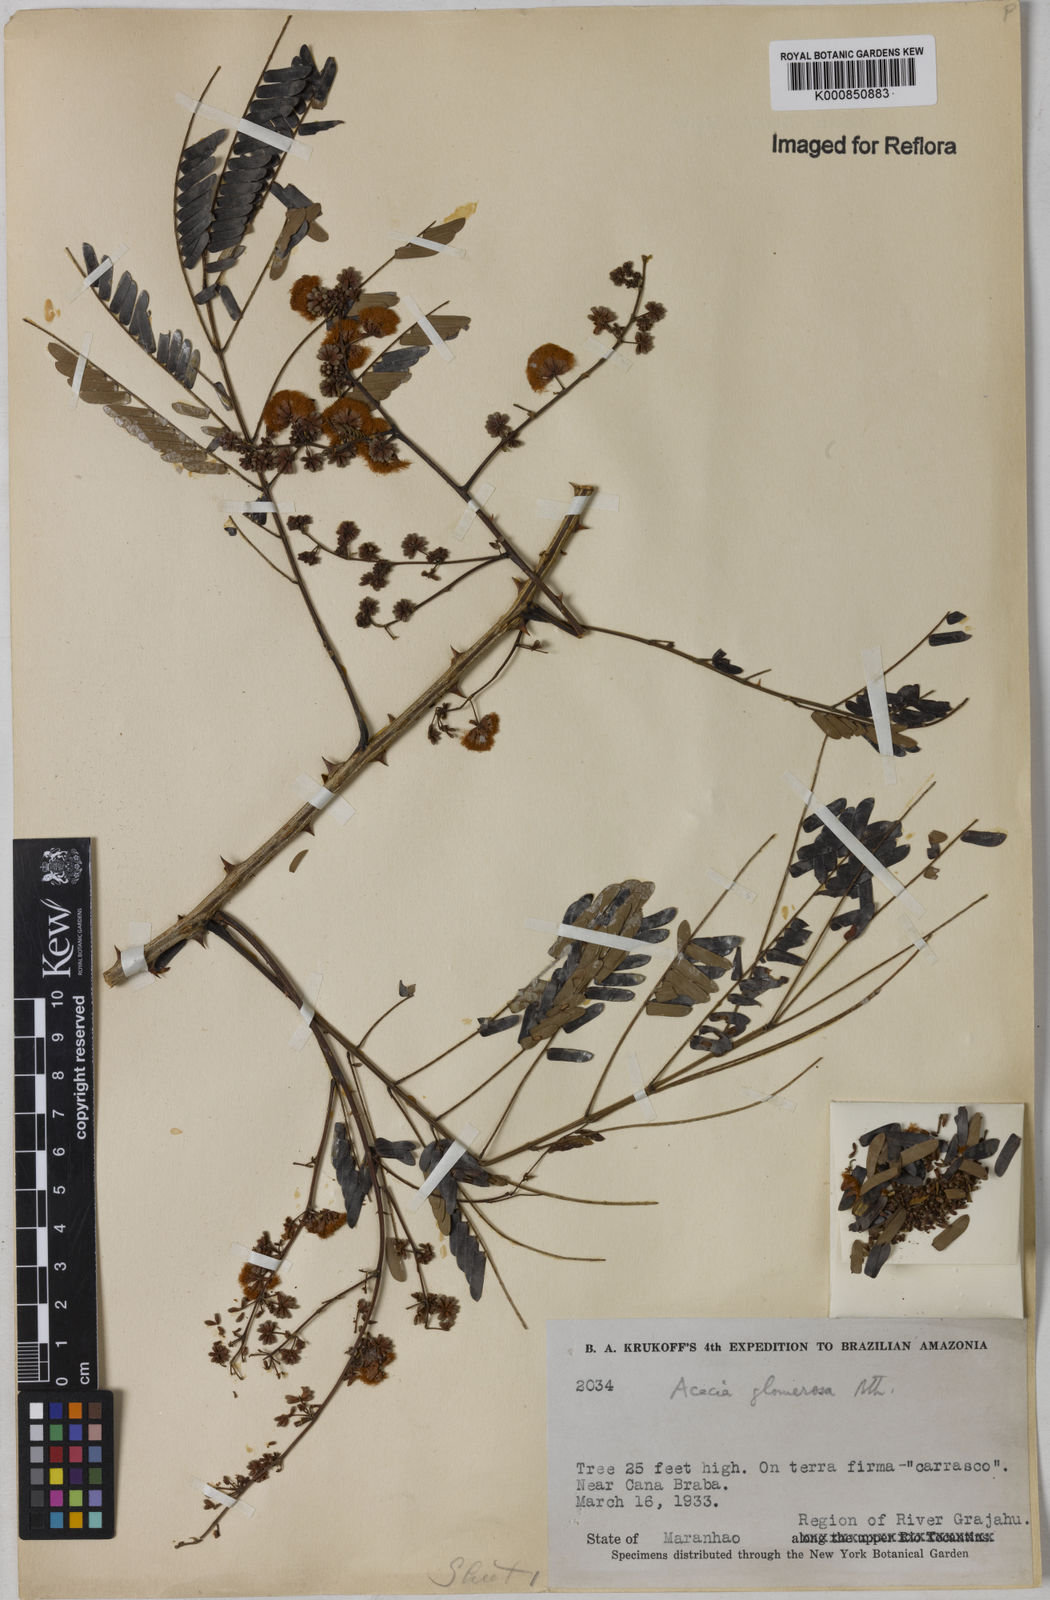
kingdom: Plantae
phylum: Tracheophyta
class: Magnoliopsida
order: Fabales
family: Fabaceae
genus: Senegalia
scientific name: Senegalia polyphylla
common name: White-tamarind
